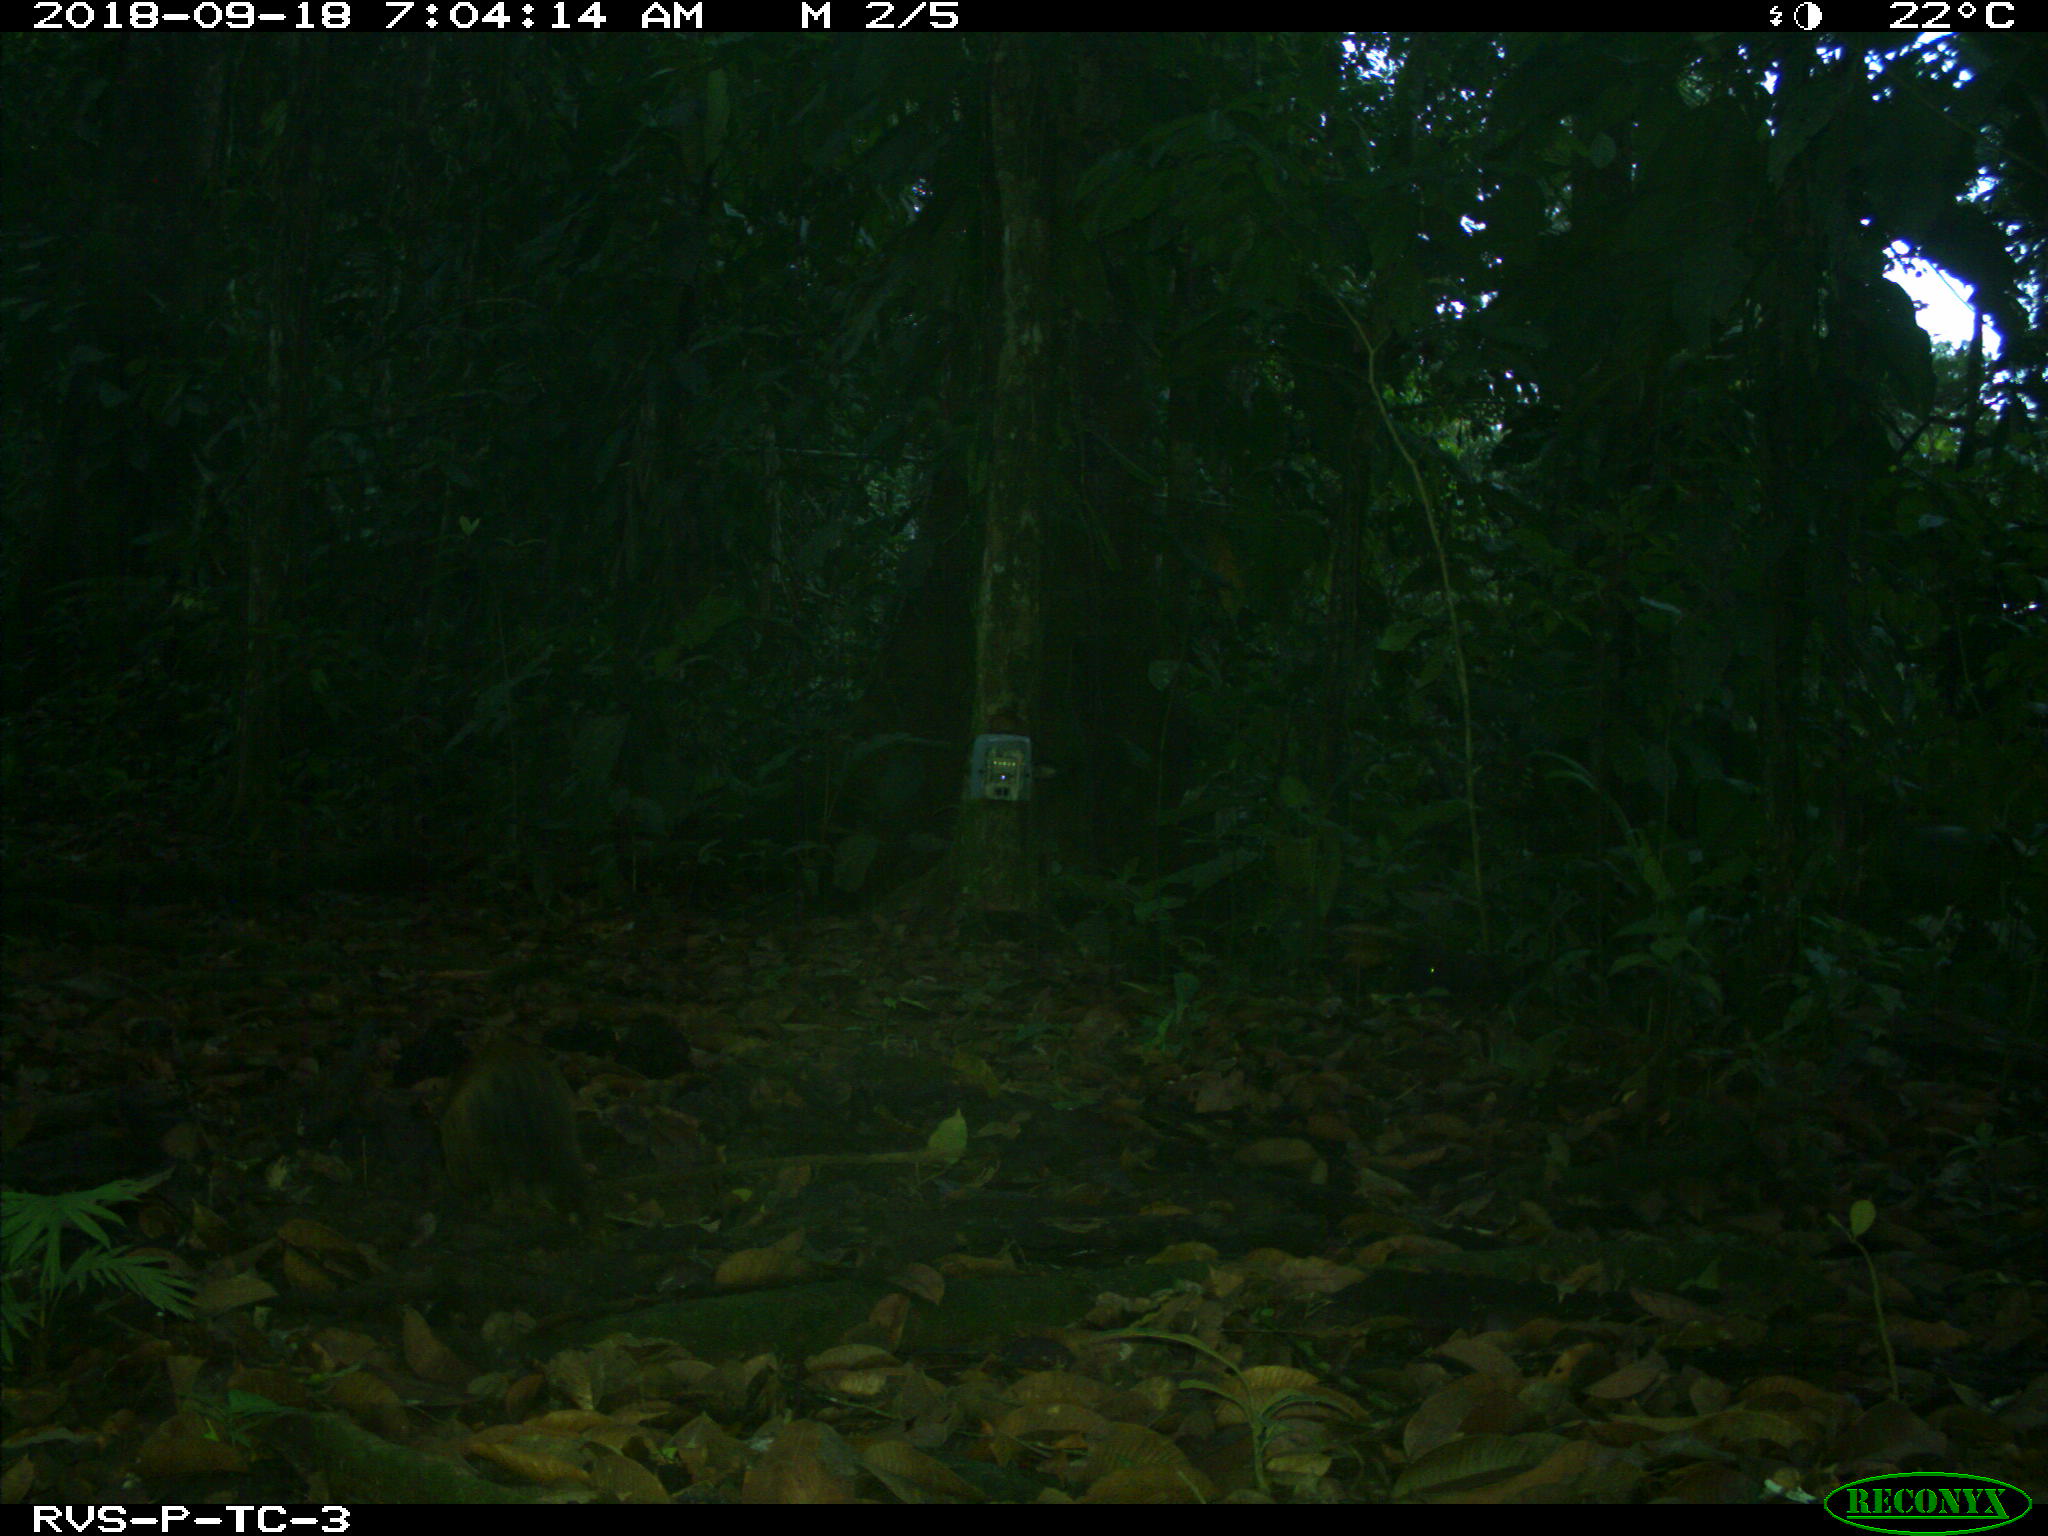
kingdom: Animalia
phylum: Chordata
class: Mammalia
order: Rodentia
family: Dasyproctidae
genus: Dasyprocta
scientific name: Dasyprocta punctata
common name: Central american agouti
